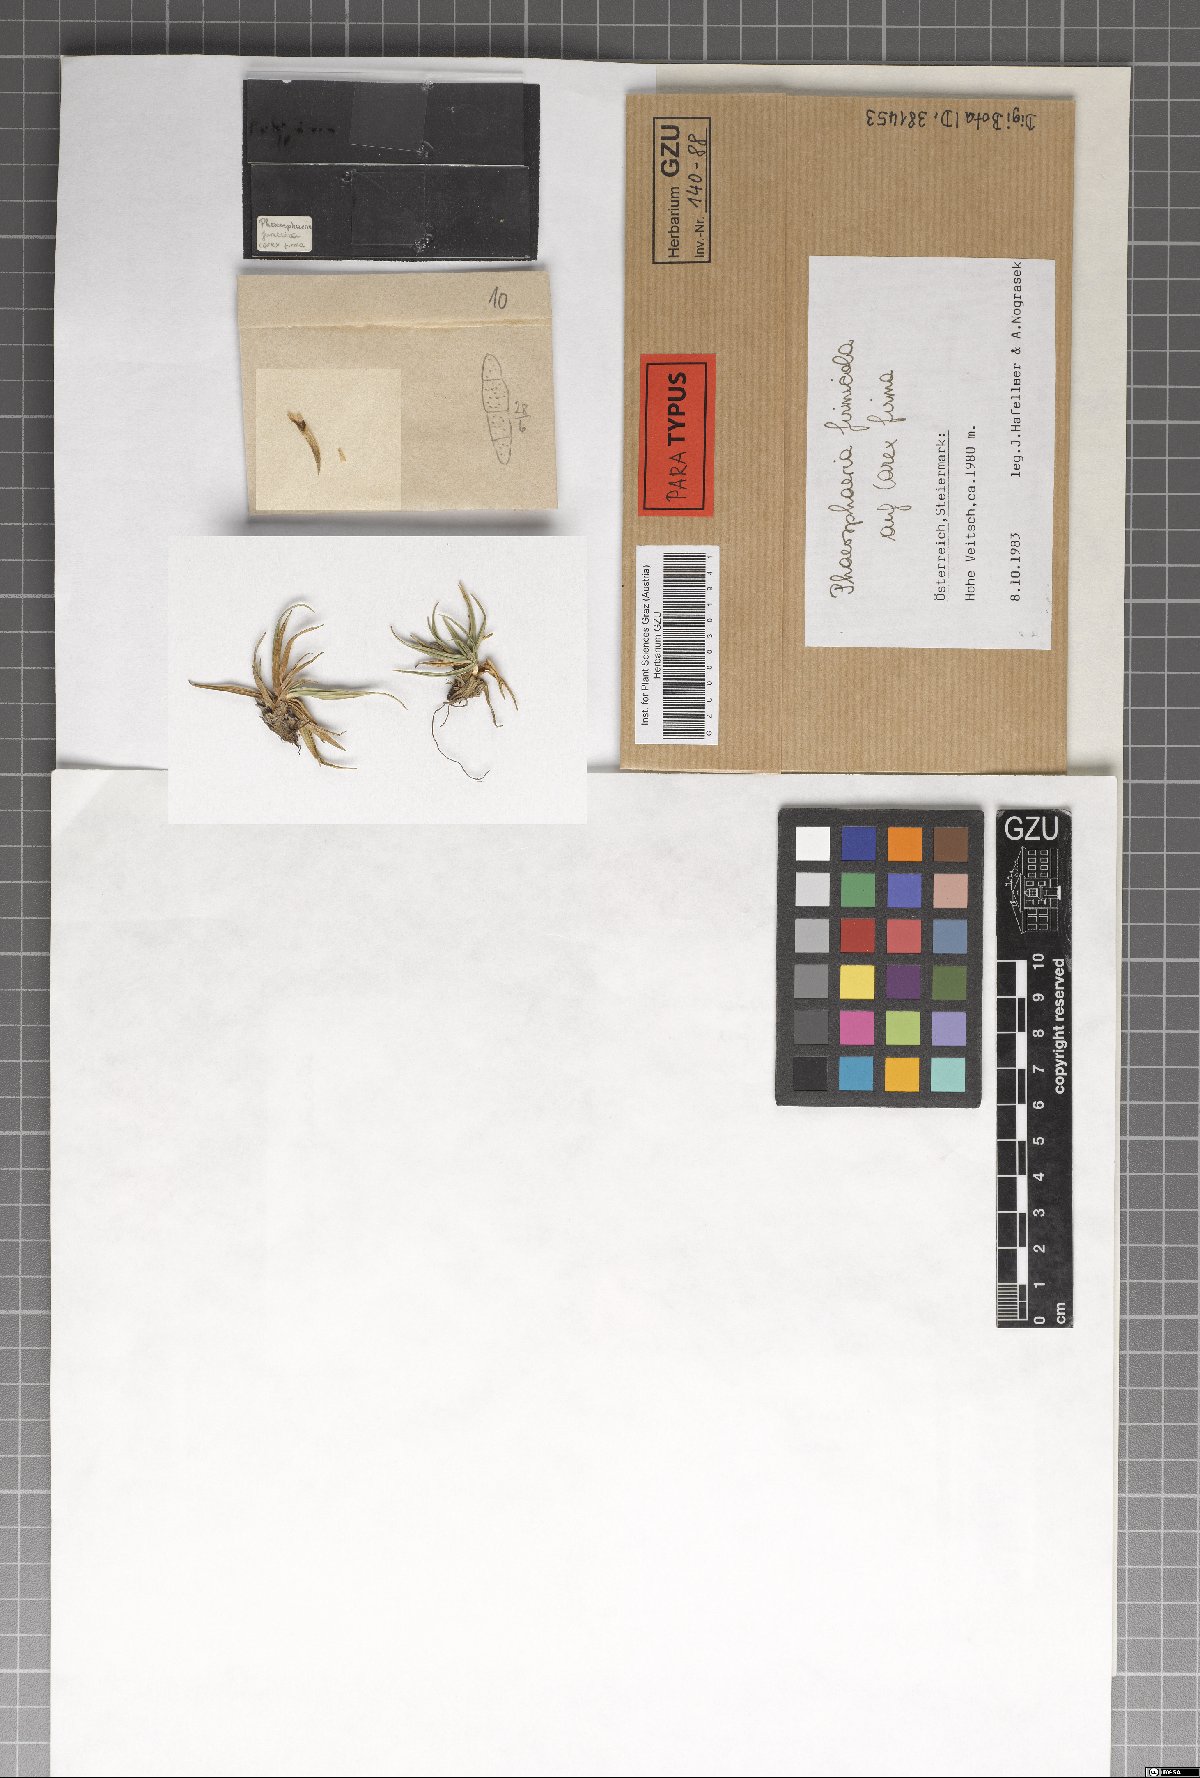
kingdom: Fungi
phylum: Ascomycota
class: Dothideomycetes
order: Pleosporales
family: Phaeosphaeriaceae
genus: Phaeosphaeria
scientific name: Phaeosphaeria firmicola
